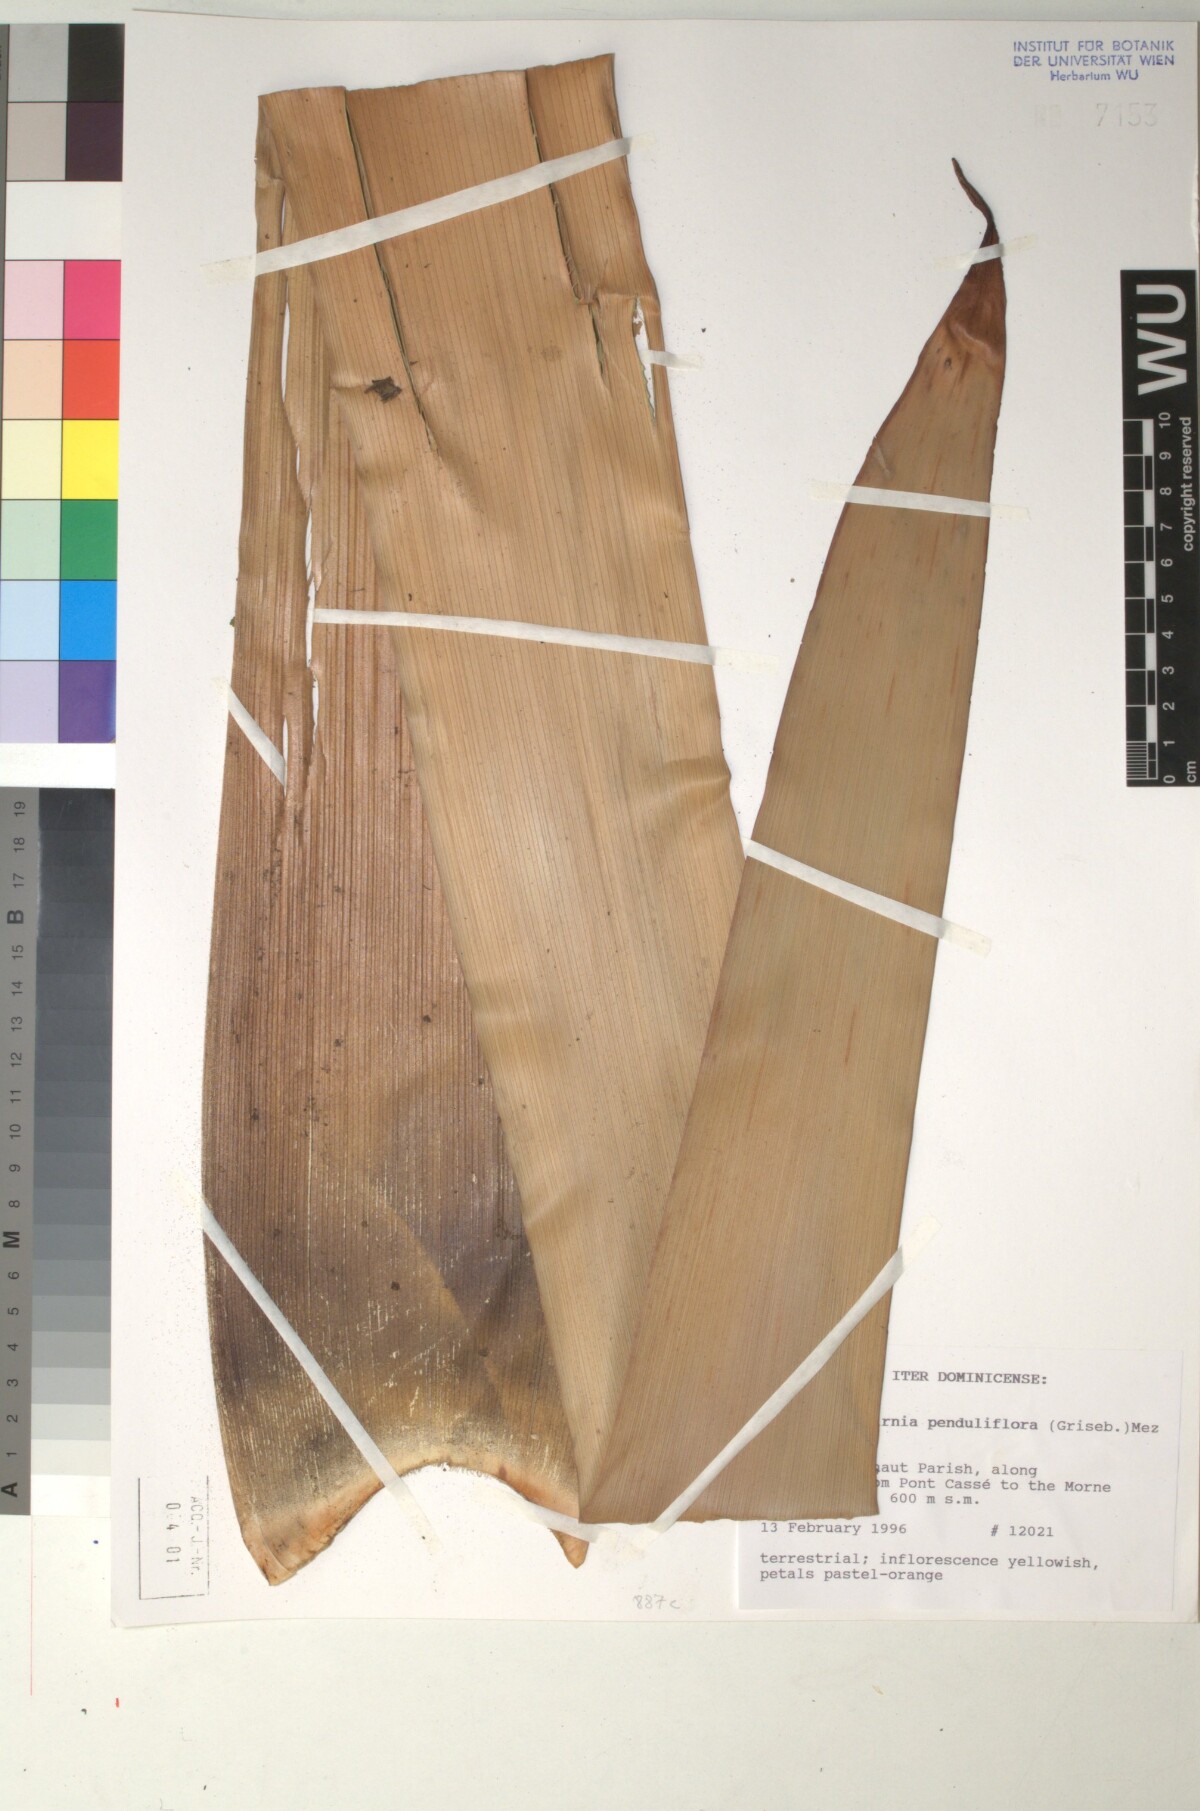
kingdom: Plantae
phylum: Tracheophyta
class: Liliopsida
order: Poales
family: Bromeliaceae
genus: Glomeropitcairnia
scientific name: Glomeropitcairnia penduliflora
